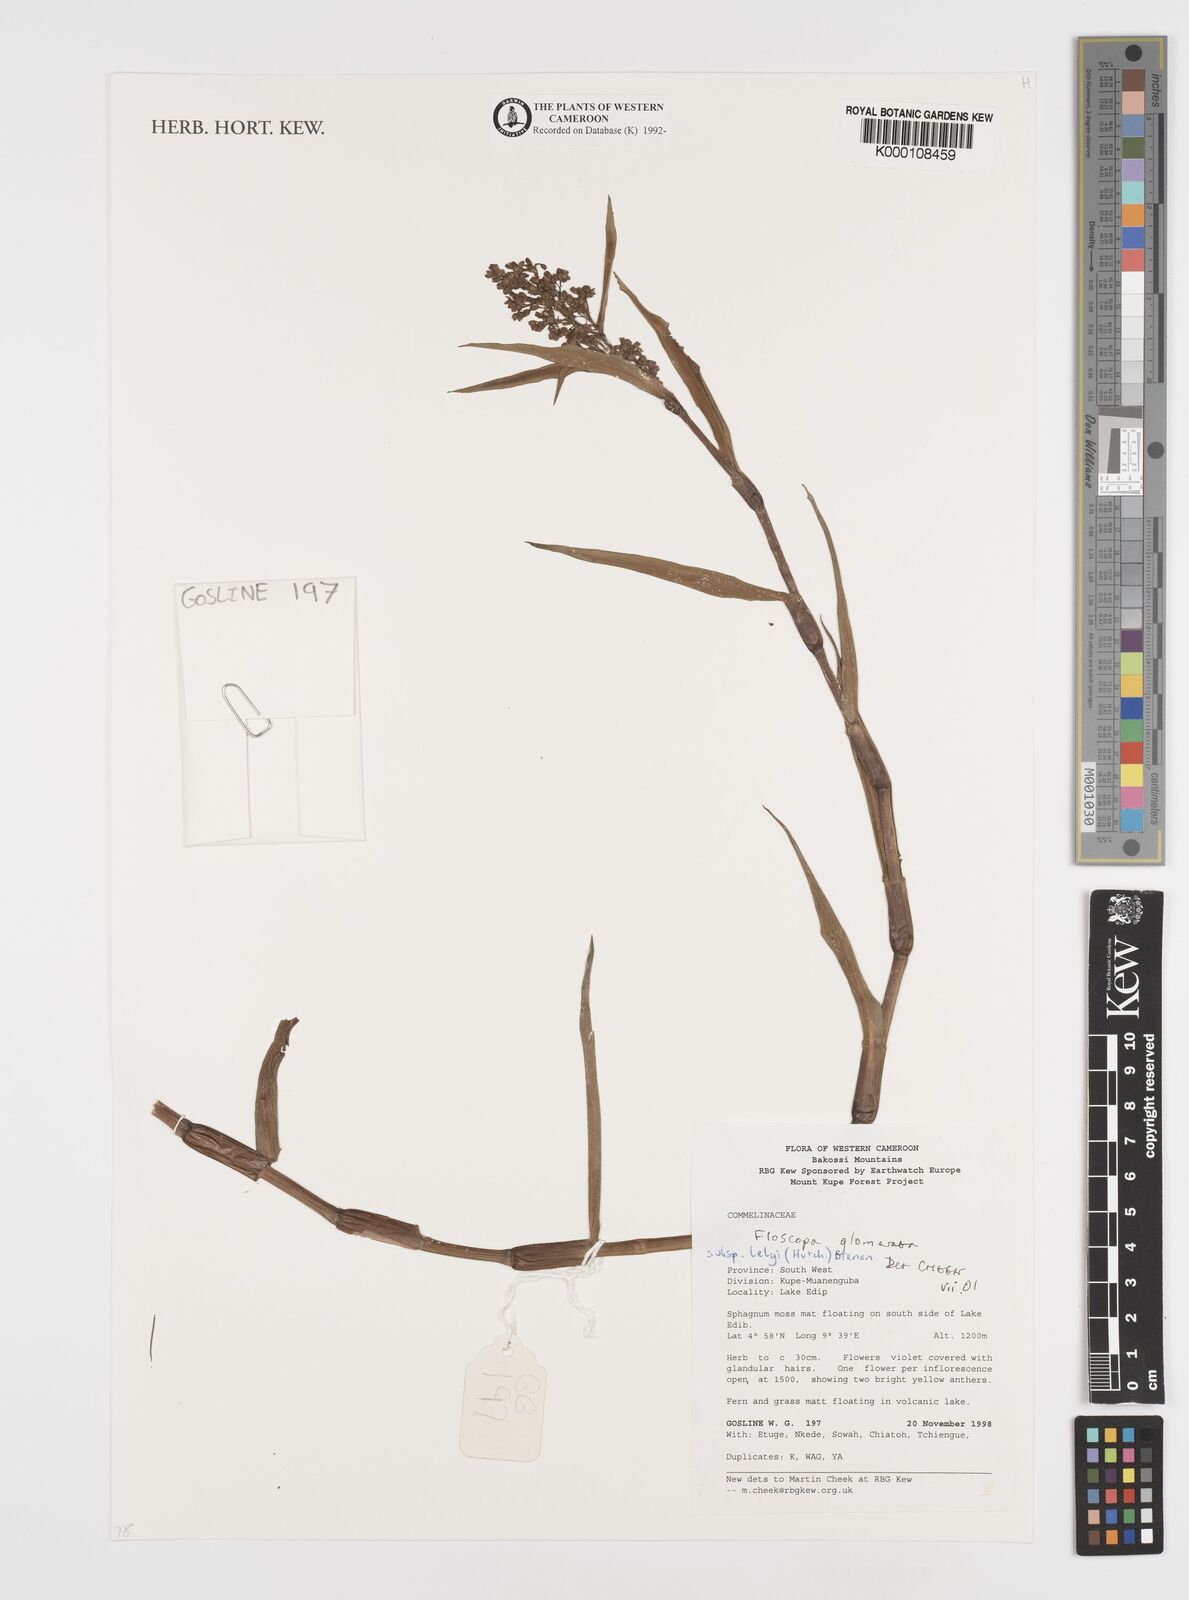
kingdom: Plantae
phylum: Tracheophyta
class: Liliopsida
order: Commelinales
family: Commelinaceae
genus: Floscopa
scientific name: Floscopa glomerata
